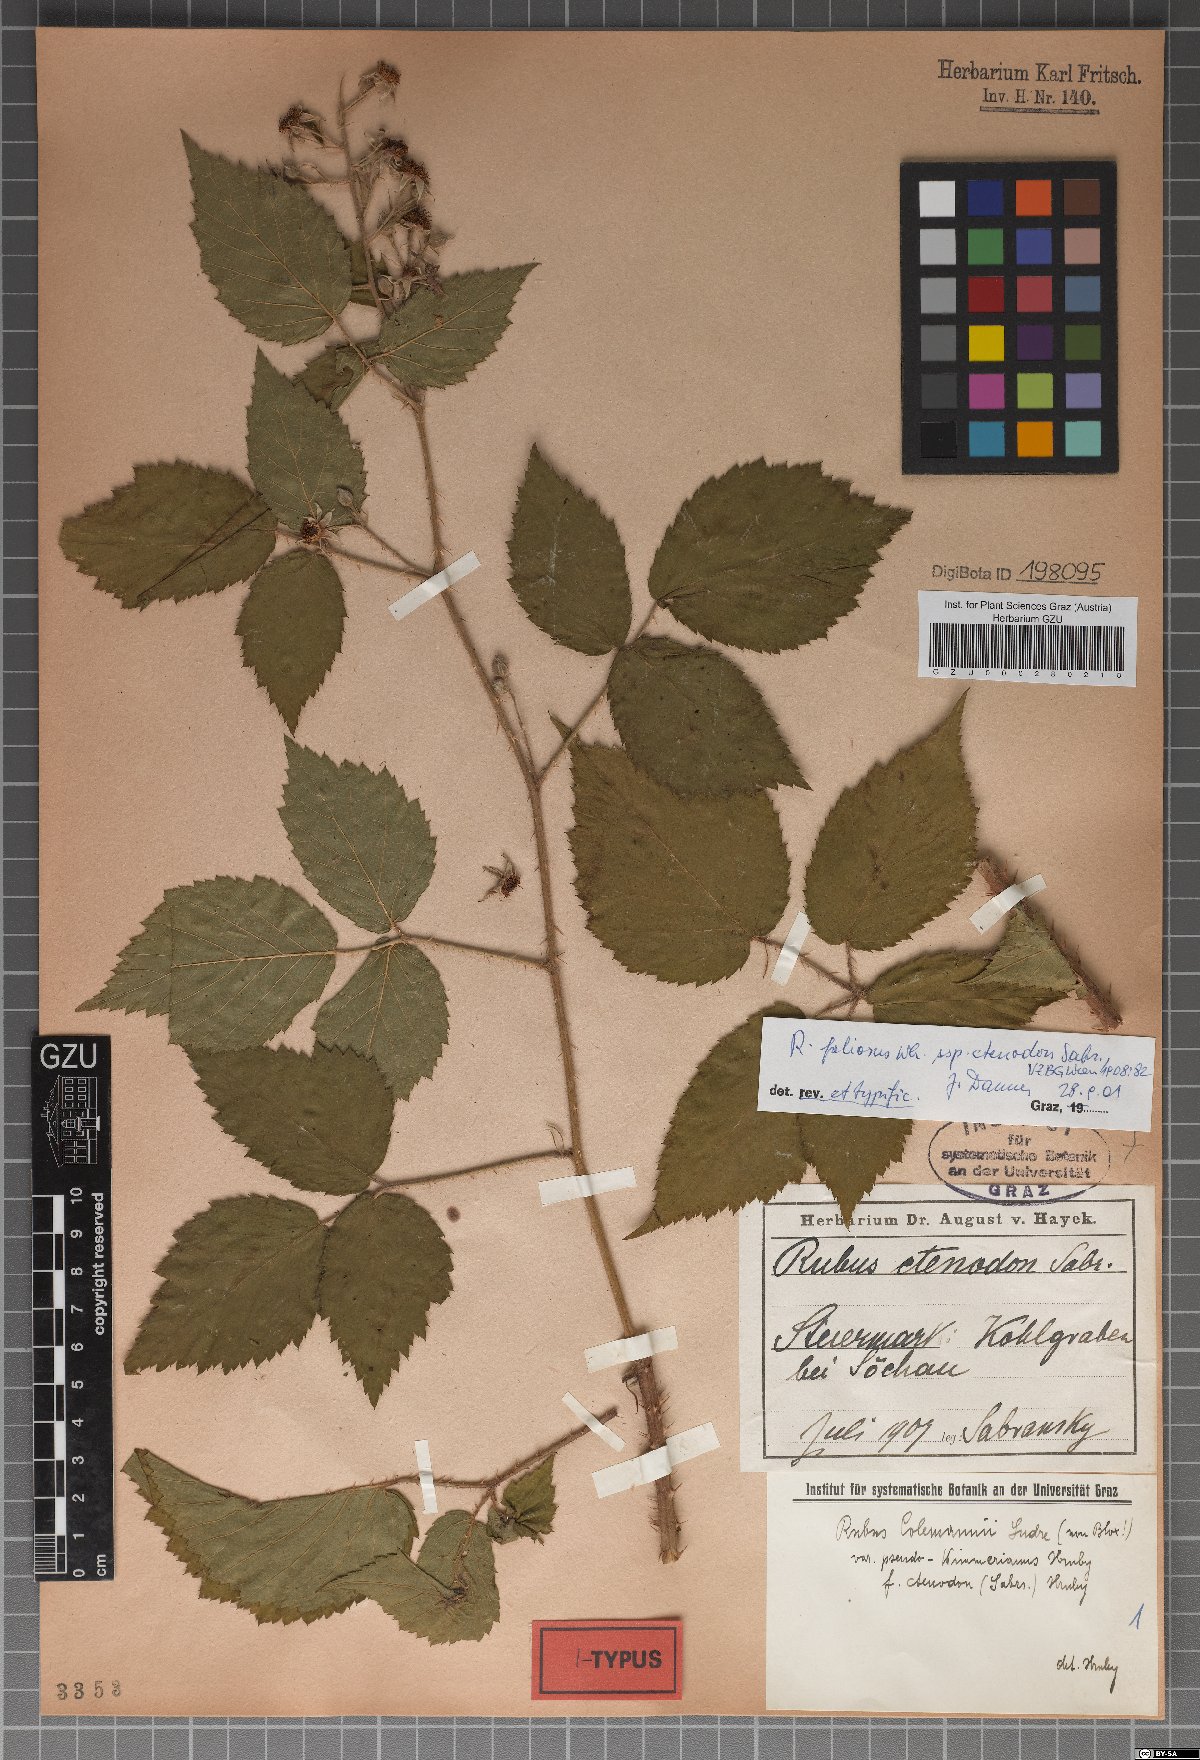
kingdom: Plantae
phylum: Tracheophyta
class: Magnoliopsida
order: Rosales
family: Rosaceae
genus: Rubus
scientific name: Rubus foliosus
